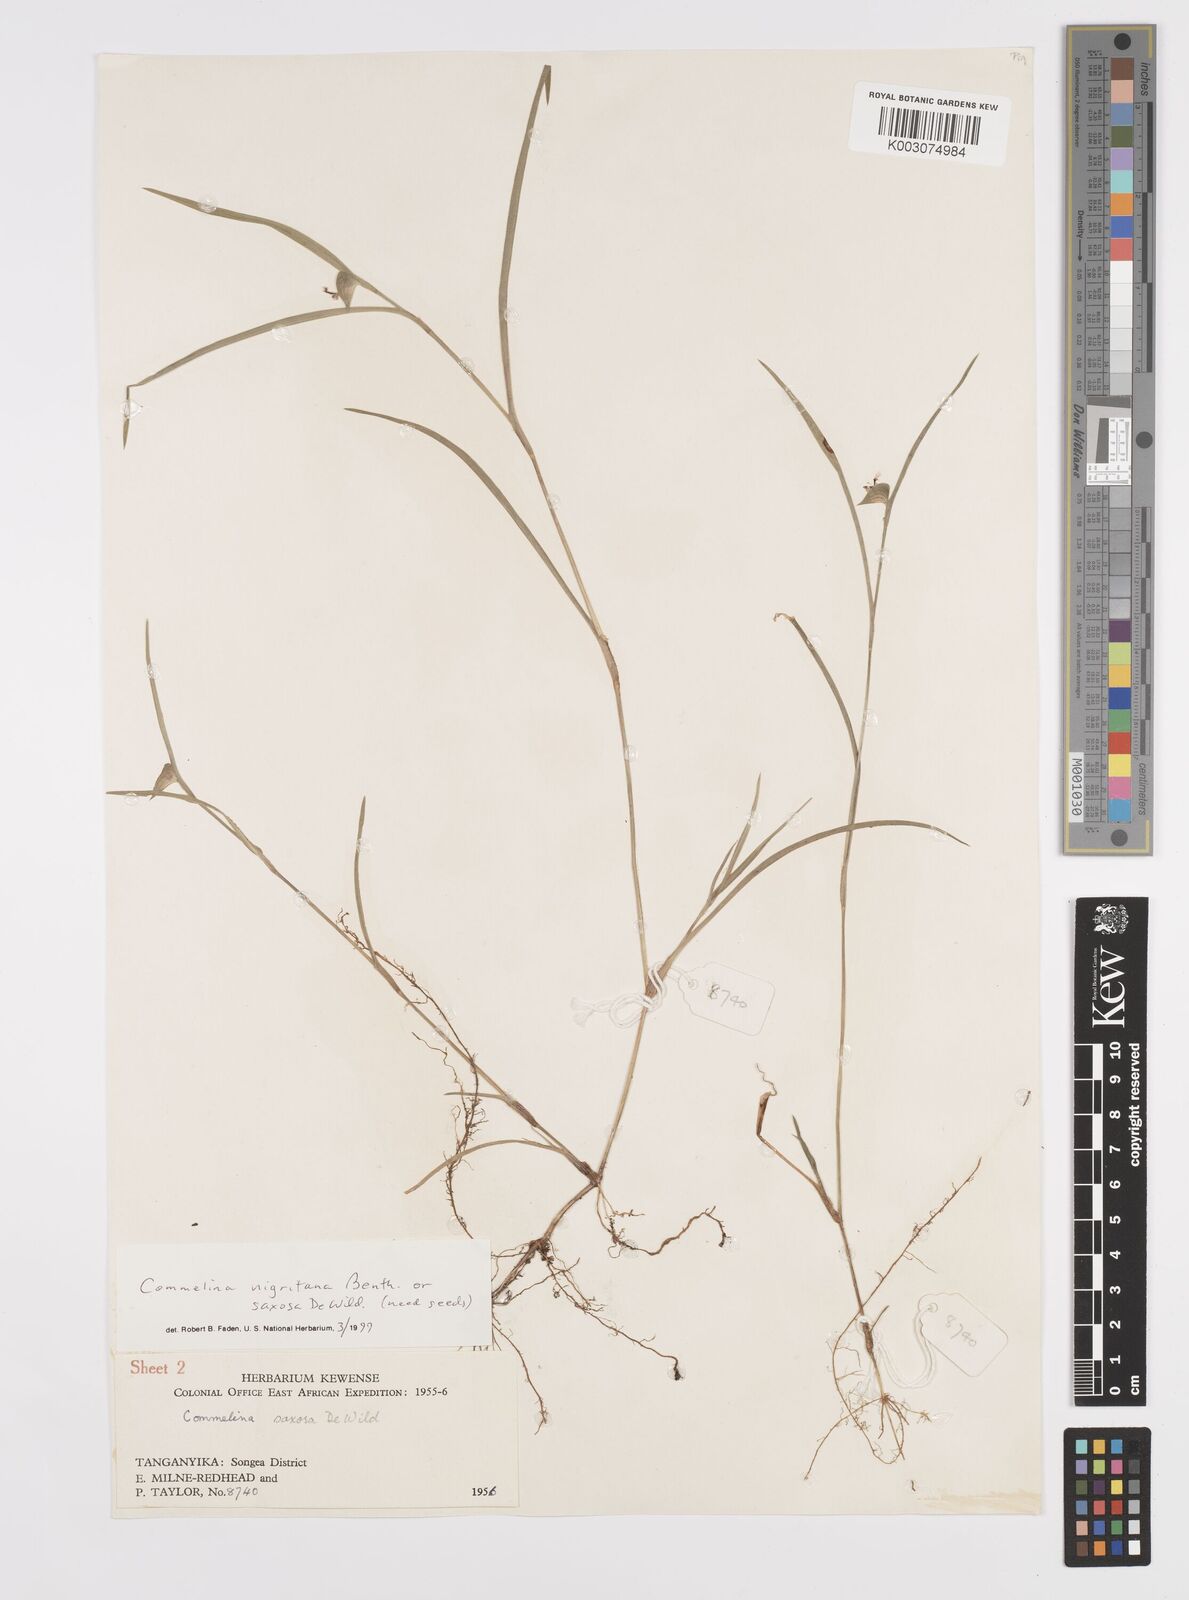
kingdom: Plantae
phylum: Tracheophyta
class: Liliopsida
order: Commelinales
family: Commelinaceae
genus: Commelina
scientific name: Commelina
